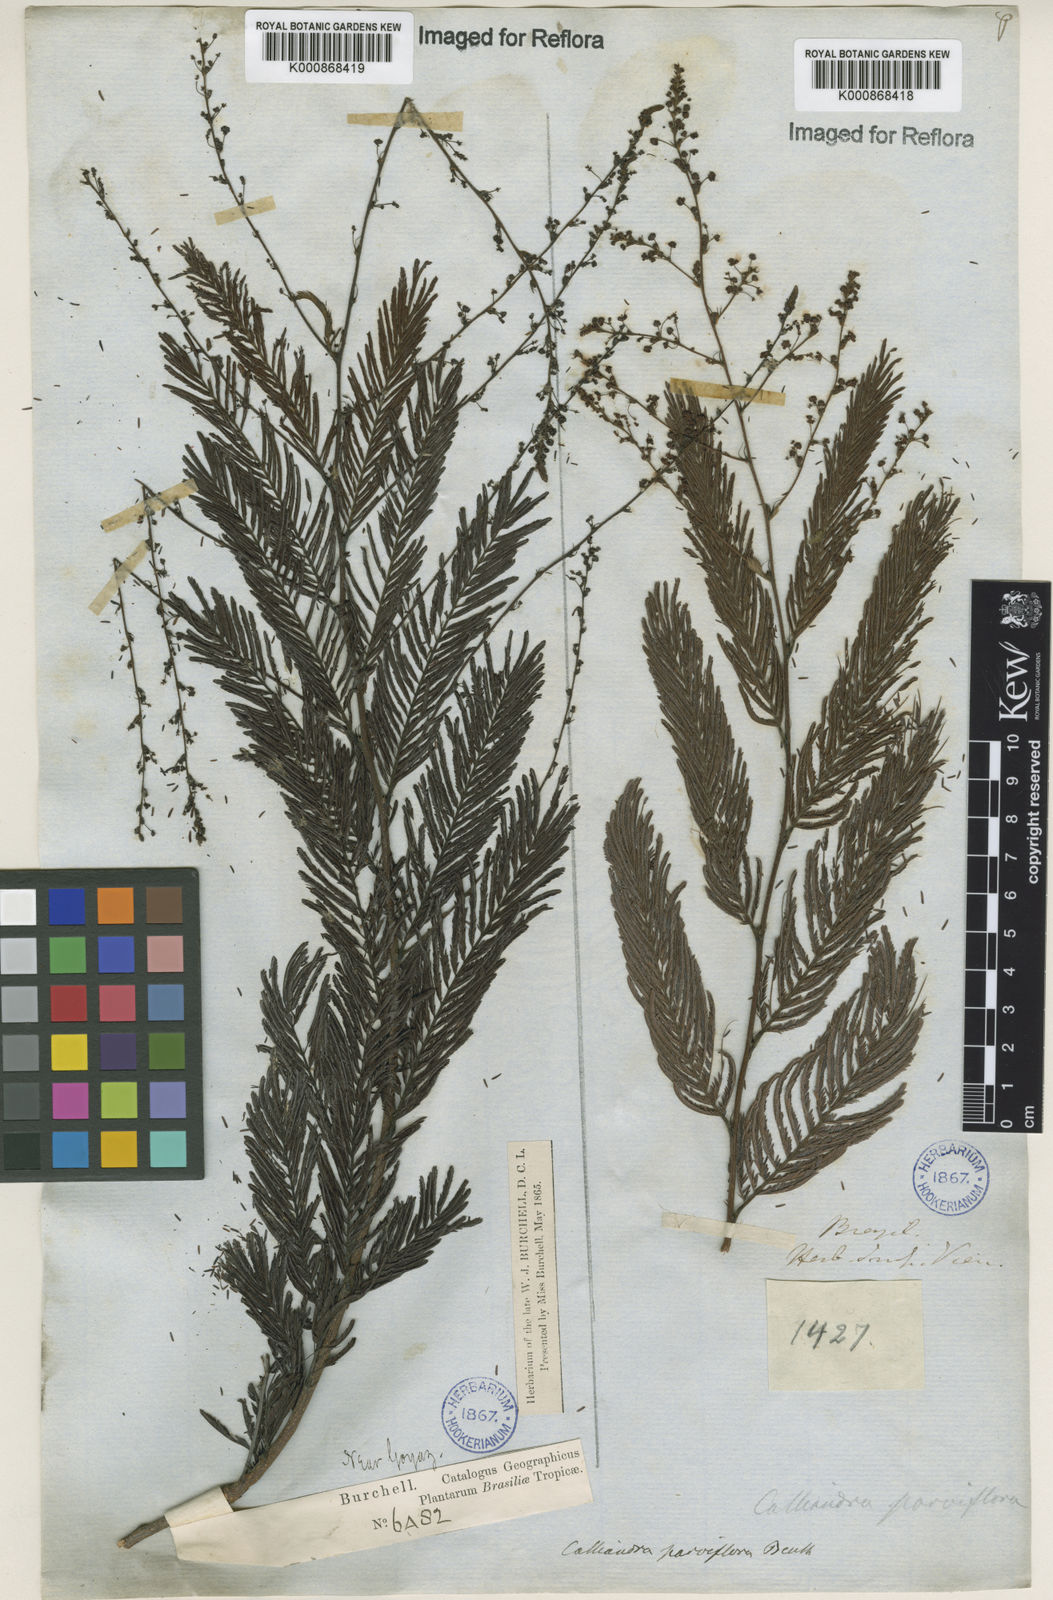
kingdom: Plantae
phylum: Tracheophyta
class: Magnoliopsida
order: Fabales
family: Fabaceae
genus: Calliandra
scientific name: Calliandra parviflora
